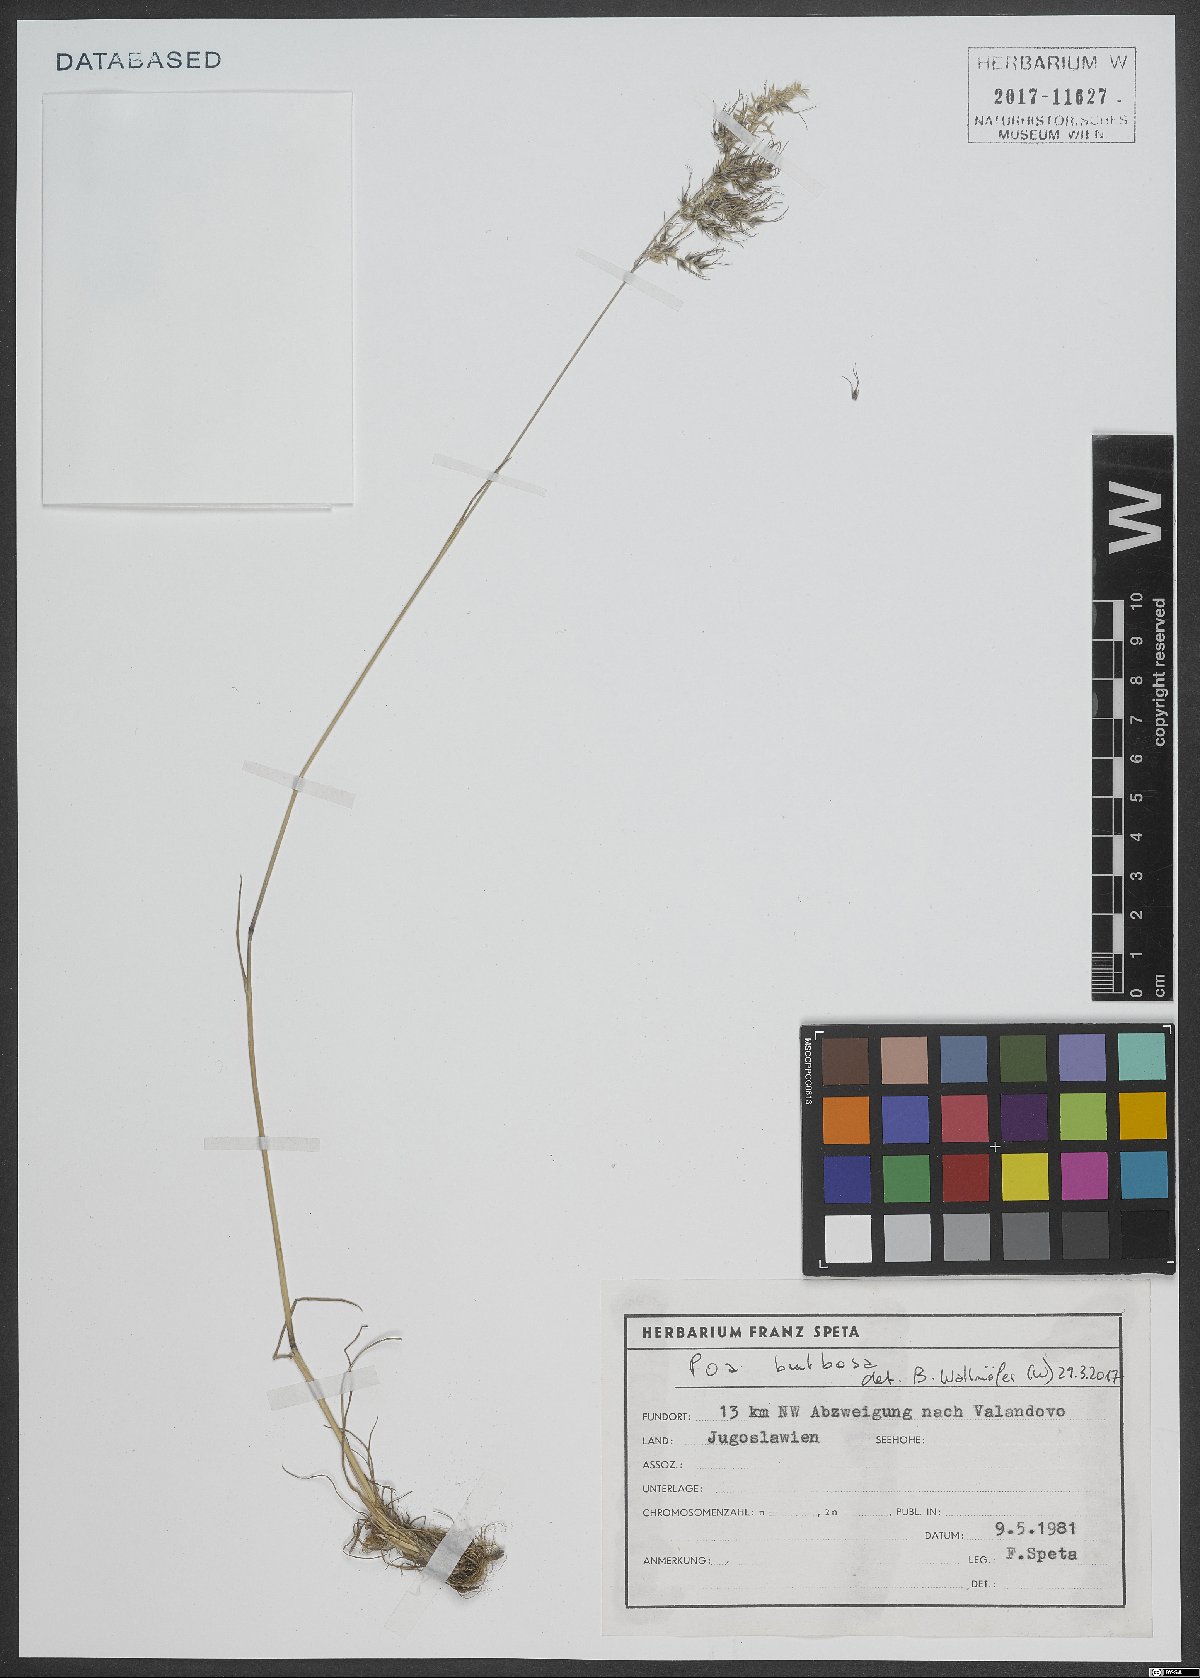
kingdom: Plantae
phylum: Tracheophyta
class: Liliopsida
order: Poales
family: Poaceae
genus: Poa
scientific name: Poa bulbosa
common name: Bulbous bluegrass
